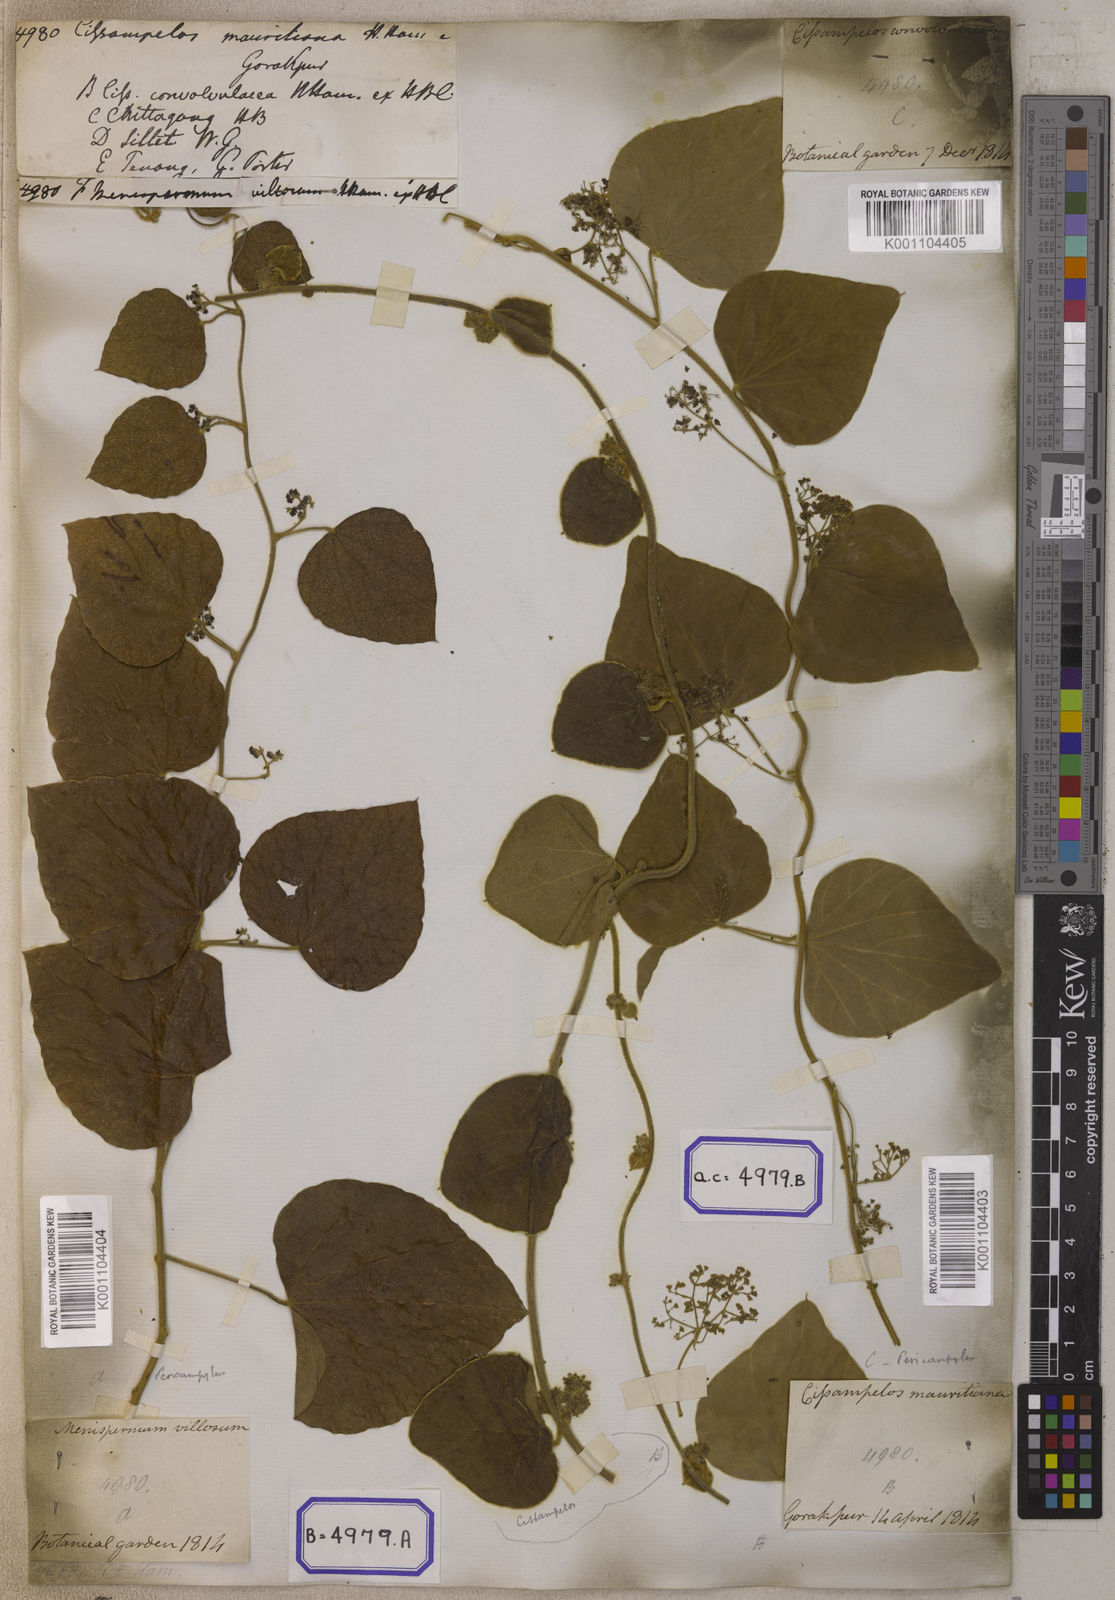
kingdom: Plantae
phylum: Tracheophyta
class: Magnoliopsida
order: Ranunculales
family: Menispermaceae
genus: Cissampelos
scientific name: Cissampelos
